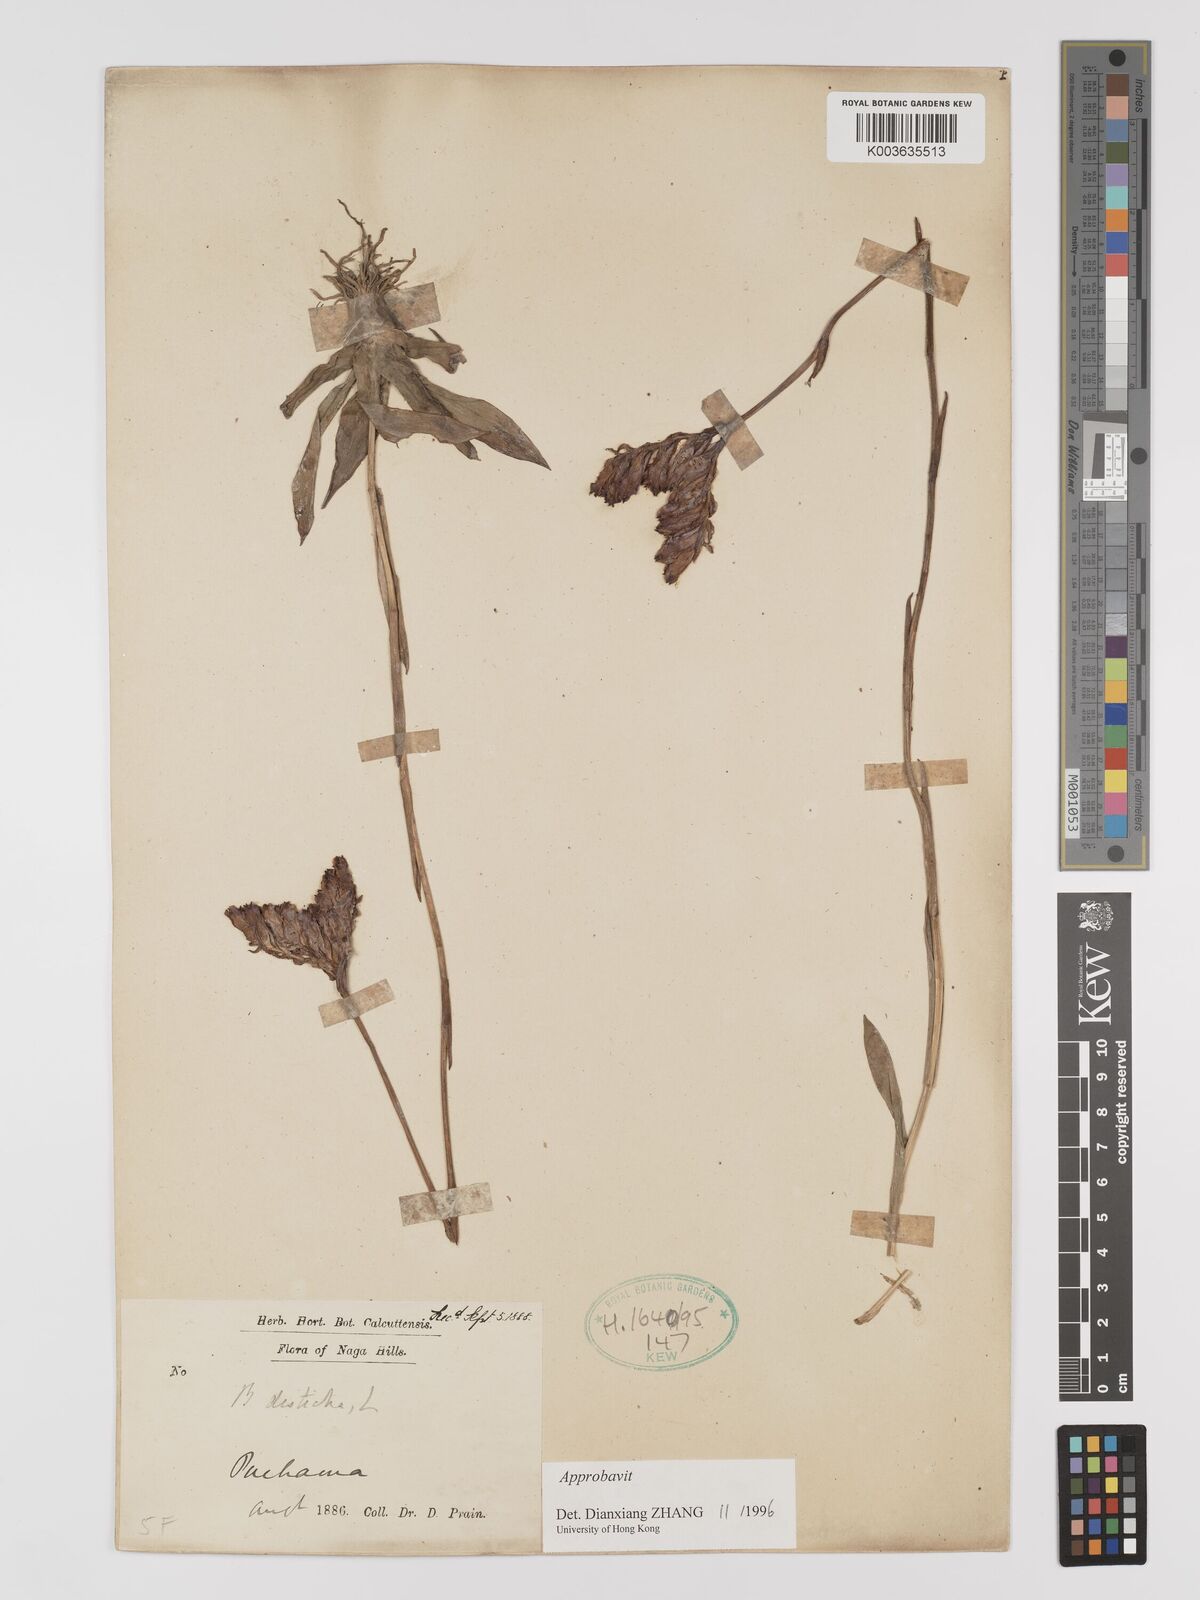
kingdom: Plantae
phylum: Tracheophyta
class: Liliopsida
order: Dioscoreales
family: Burmanniaceae
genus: Burmannia
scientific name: Burmannia disticha
